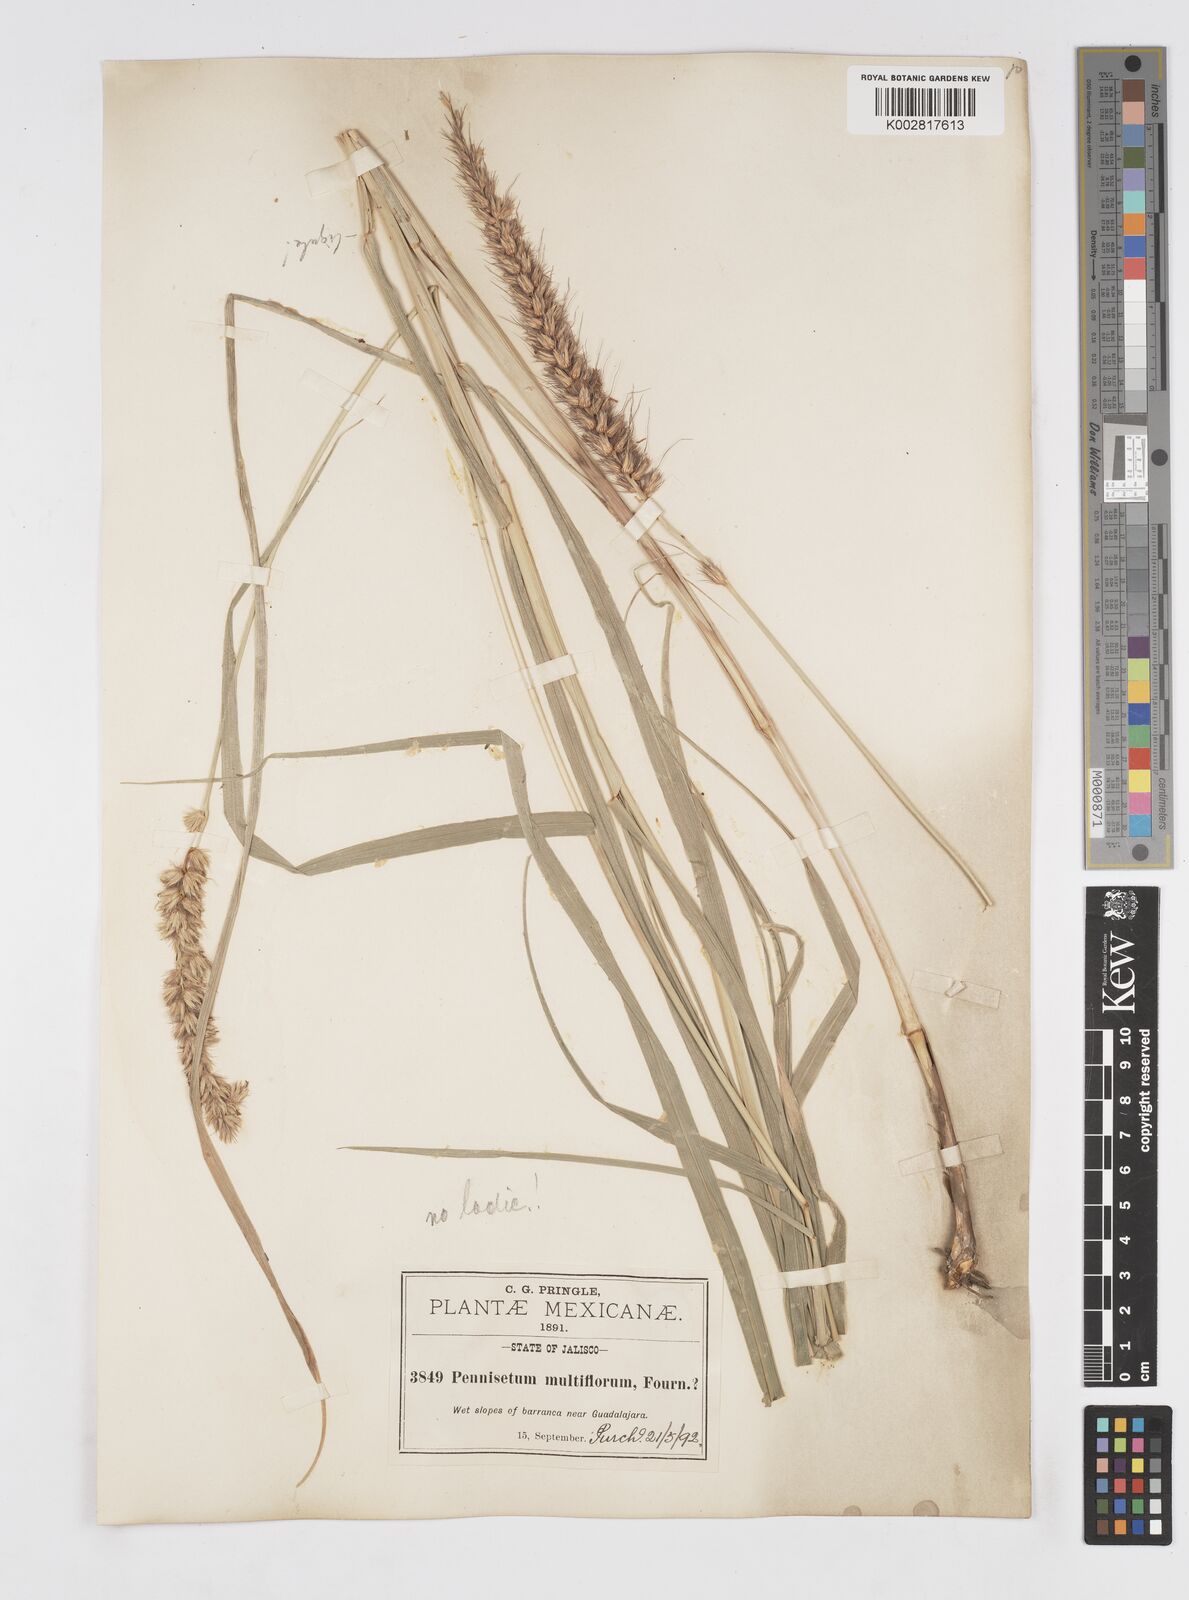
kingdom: Plantae
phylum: Tracheophyta
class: Liliopsida
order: Poales
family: Poaceae
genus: Cenchrus
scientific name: Cenchrus multiflorus
